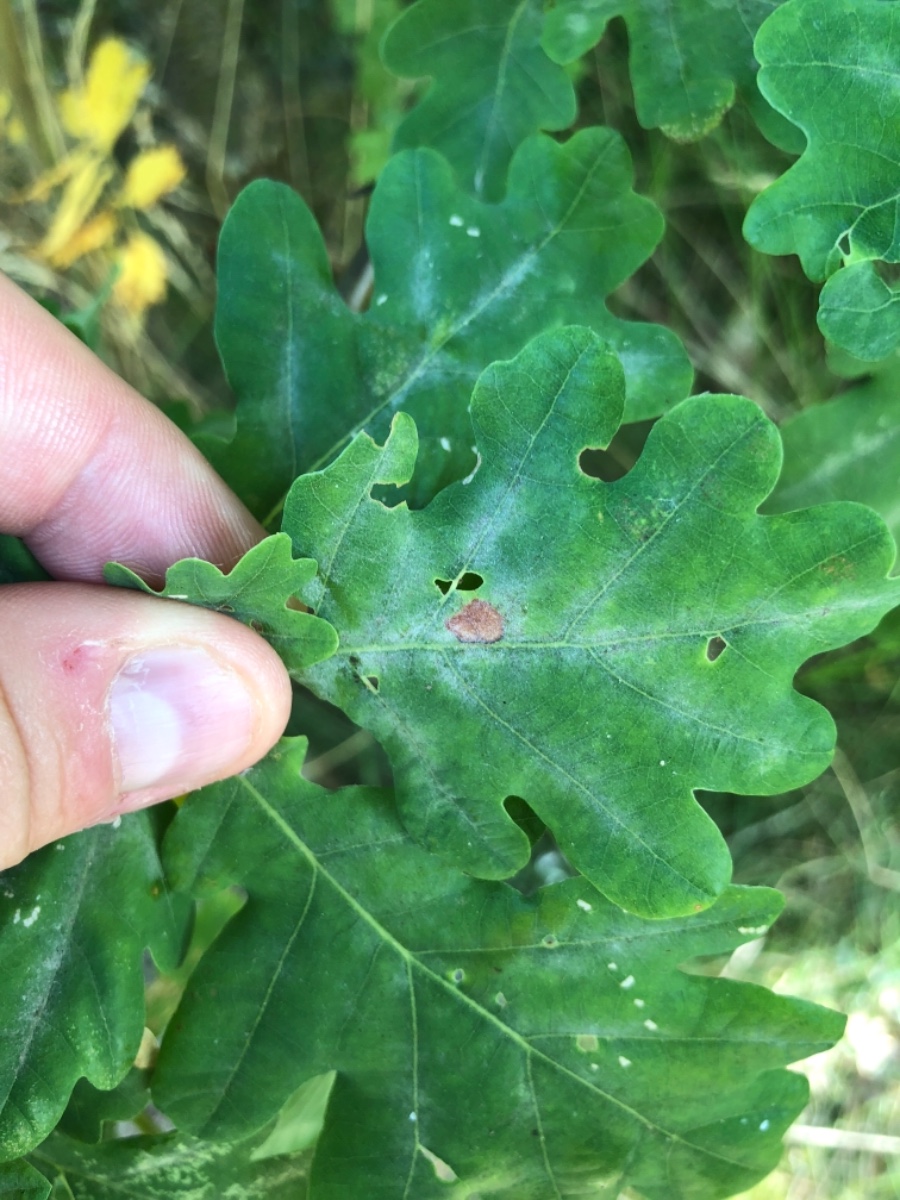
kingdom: Fungi
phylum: Ascomycota
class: Leotiomycetes
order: Helotiales
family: Erysiphaceae
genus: Erysiphe
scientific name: Erysiphe alphitoides
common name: ege-meldug
